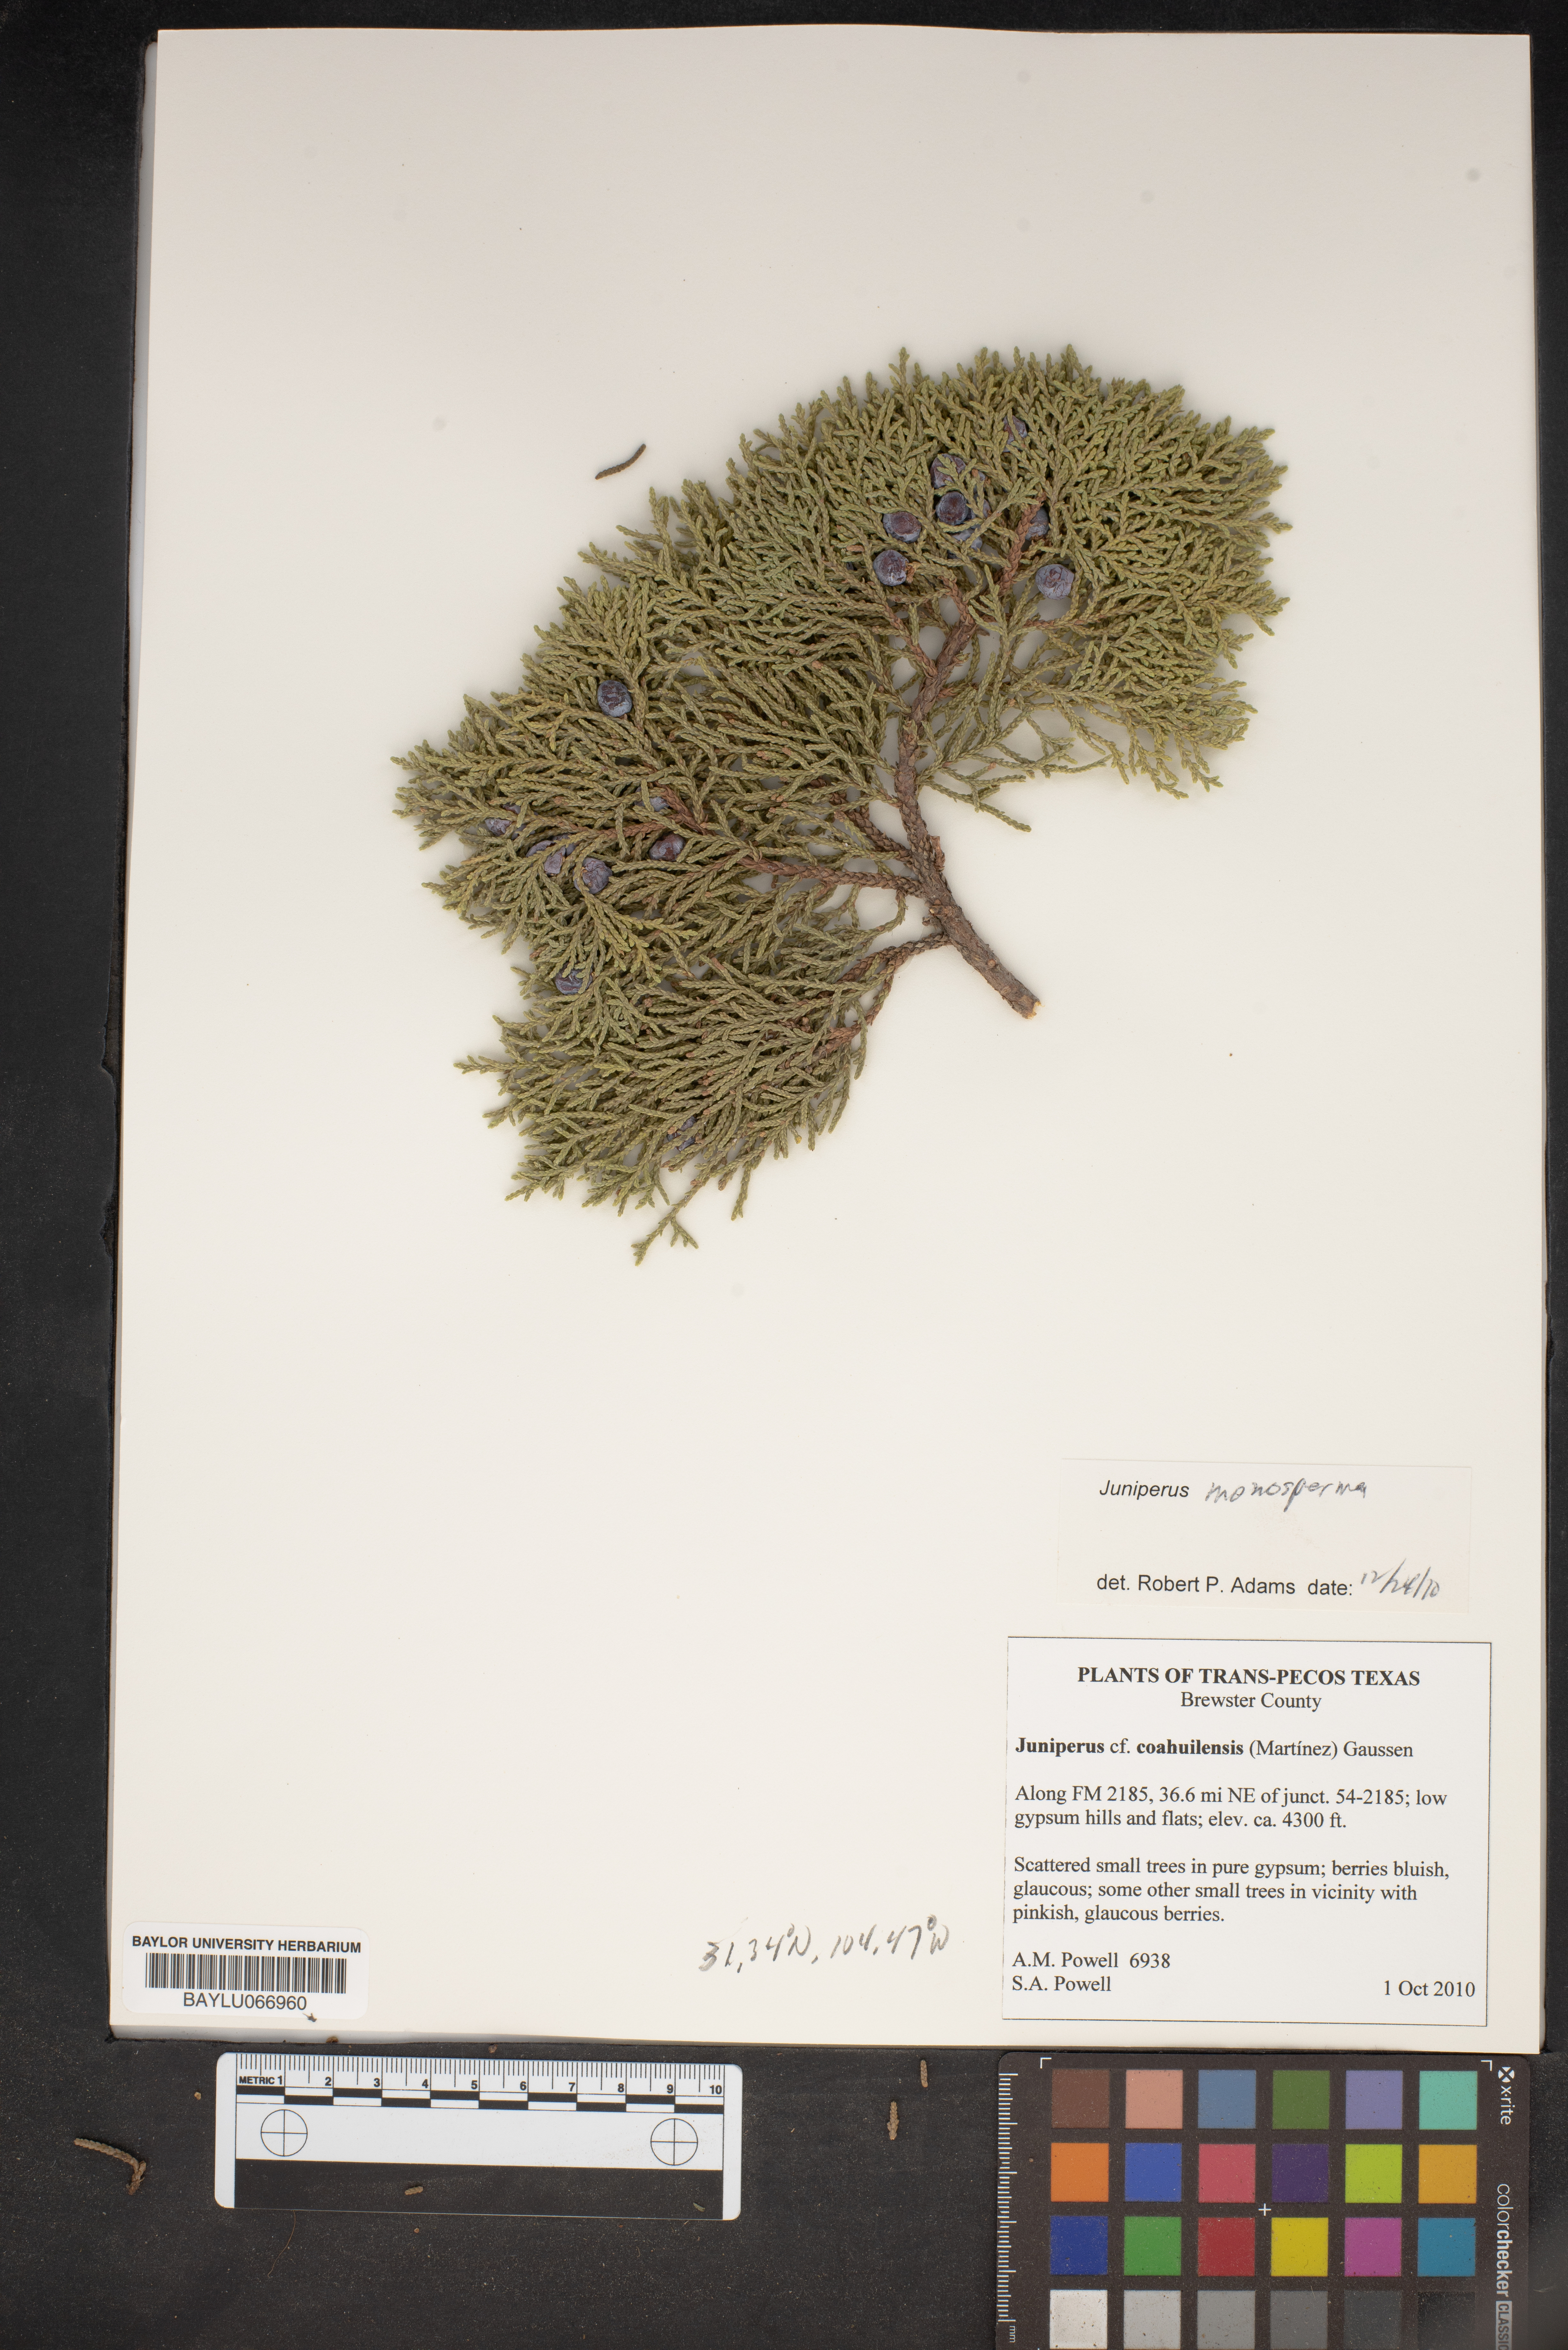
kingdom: Plantae
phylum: Tracheophyta
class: Pinopsida
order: Pinales
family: Cupressaceae
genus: Juniperus
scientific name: Juniperus monosperma
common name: One-seed juniper
